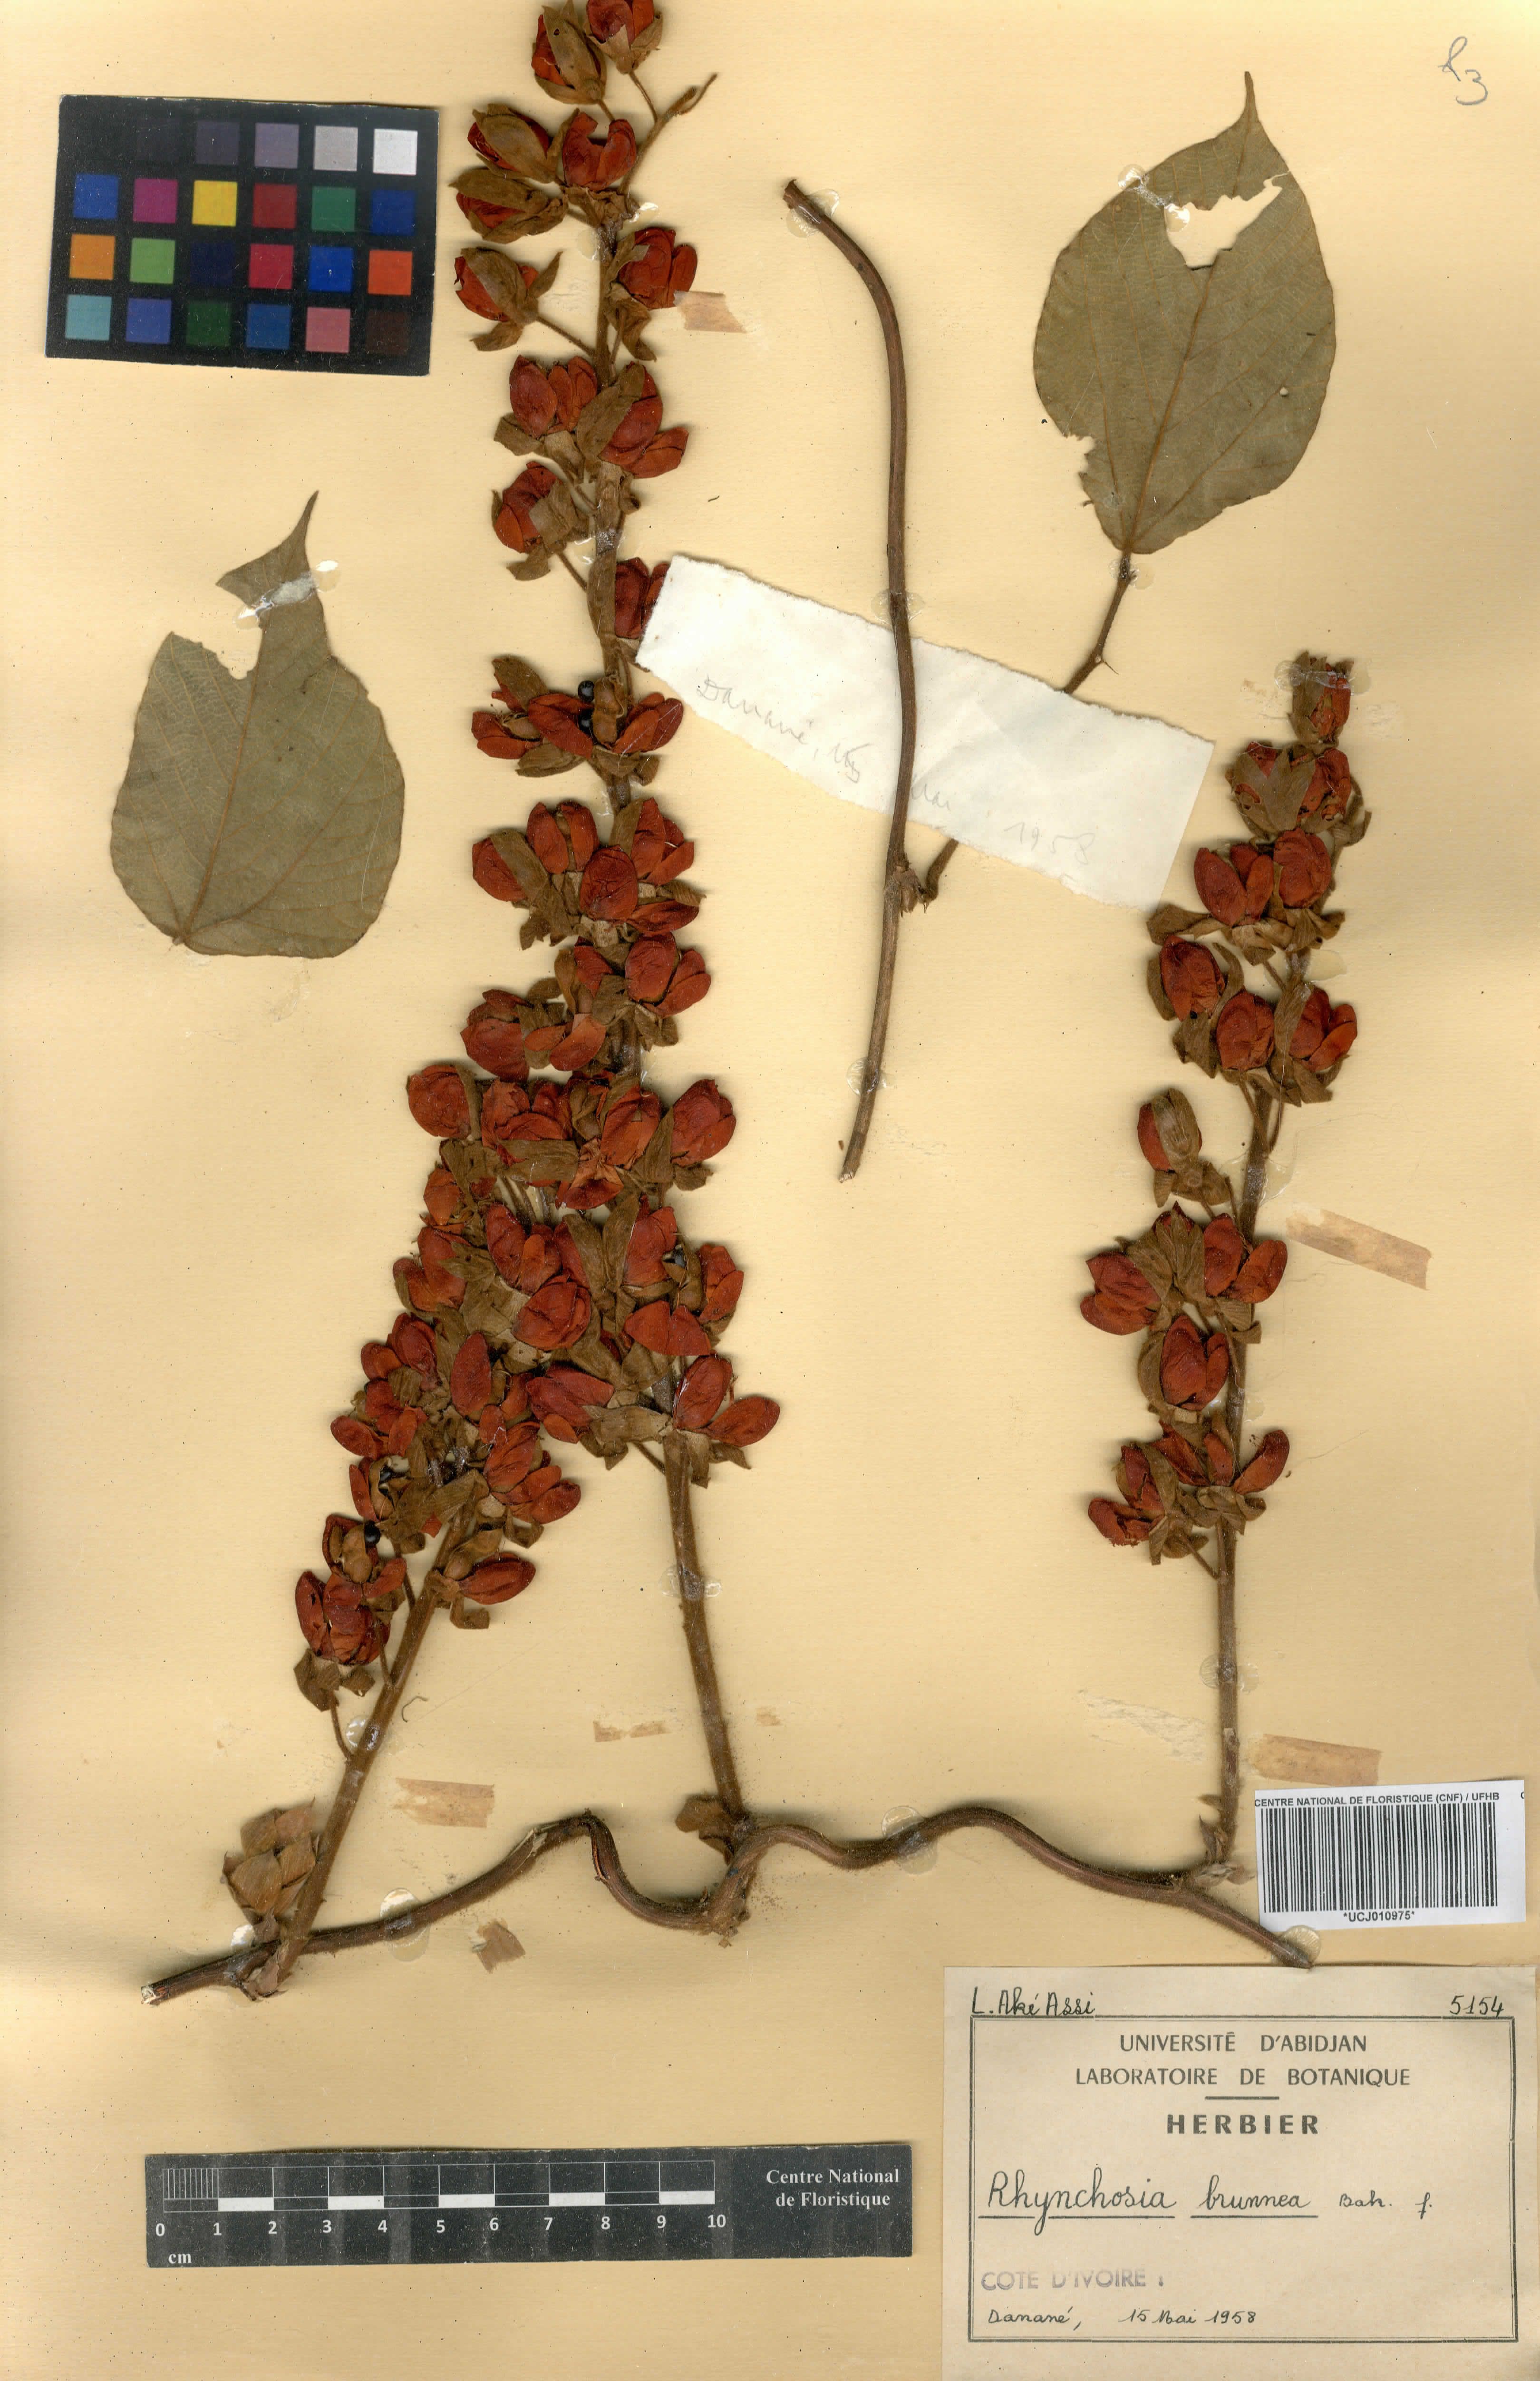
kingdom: Plantae
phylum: Tracheophyta
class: Magnoliopsida
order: Fabales
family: Fabaceae
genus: Rhynchosia
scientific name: Rhynchosia hirta
